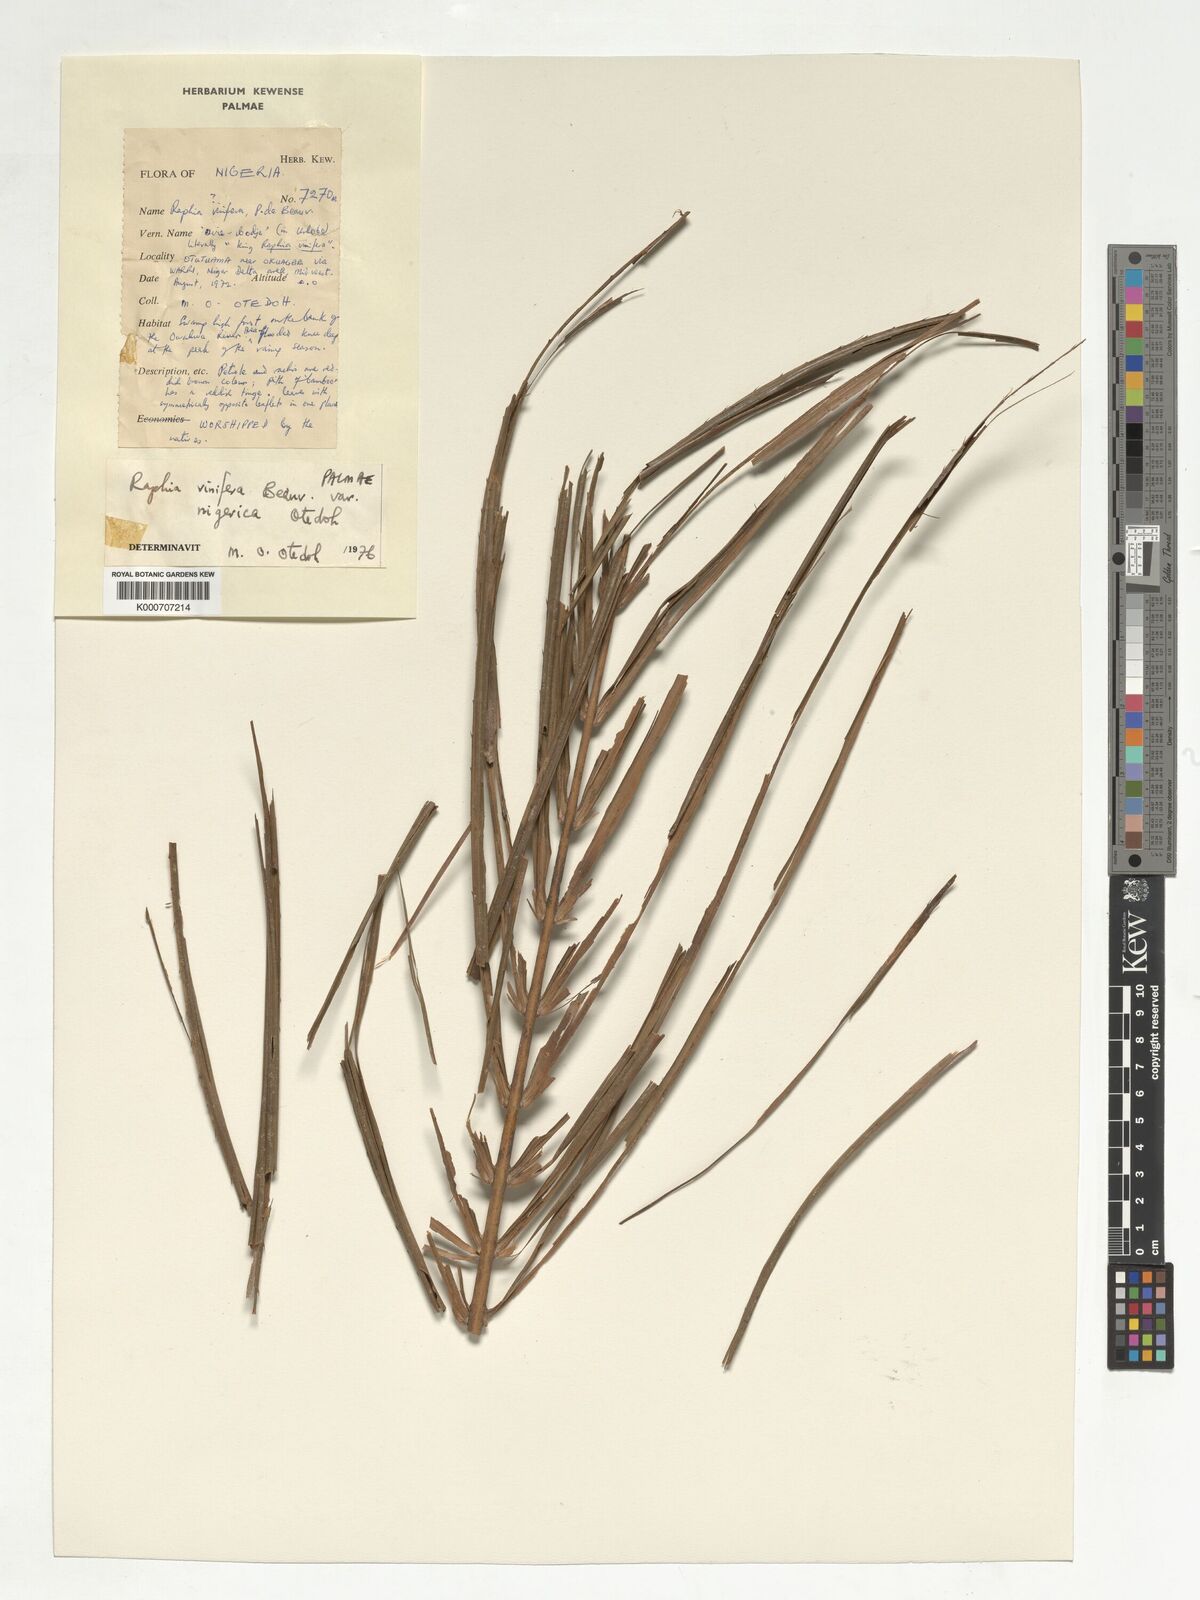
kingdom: Plantae
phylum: Tracheophyta
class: Liliopsida
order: Arecales
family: Arecaceae
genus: Raphia
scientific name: Raphia vinifera
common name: Raphia palm
